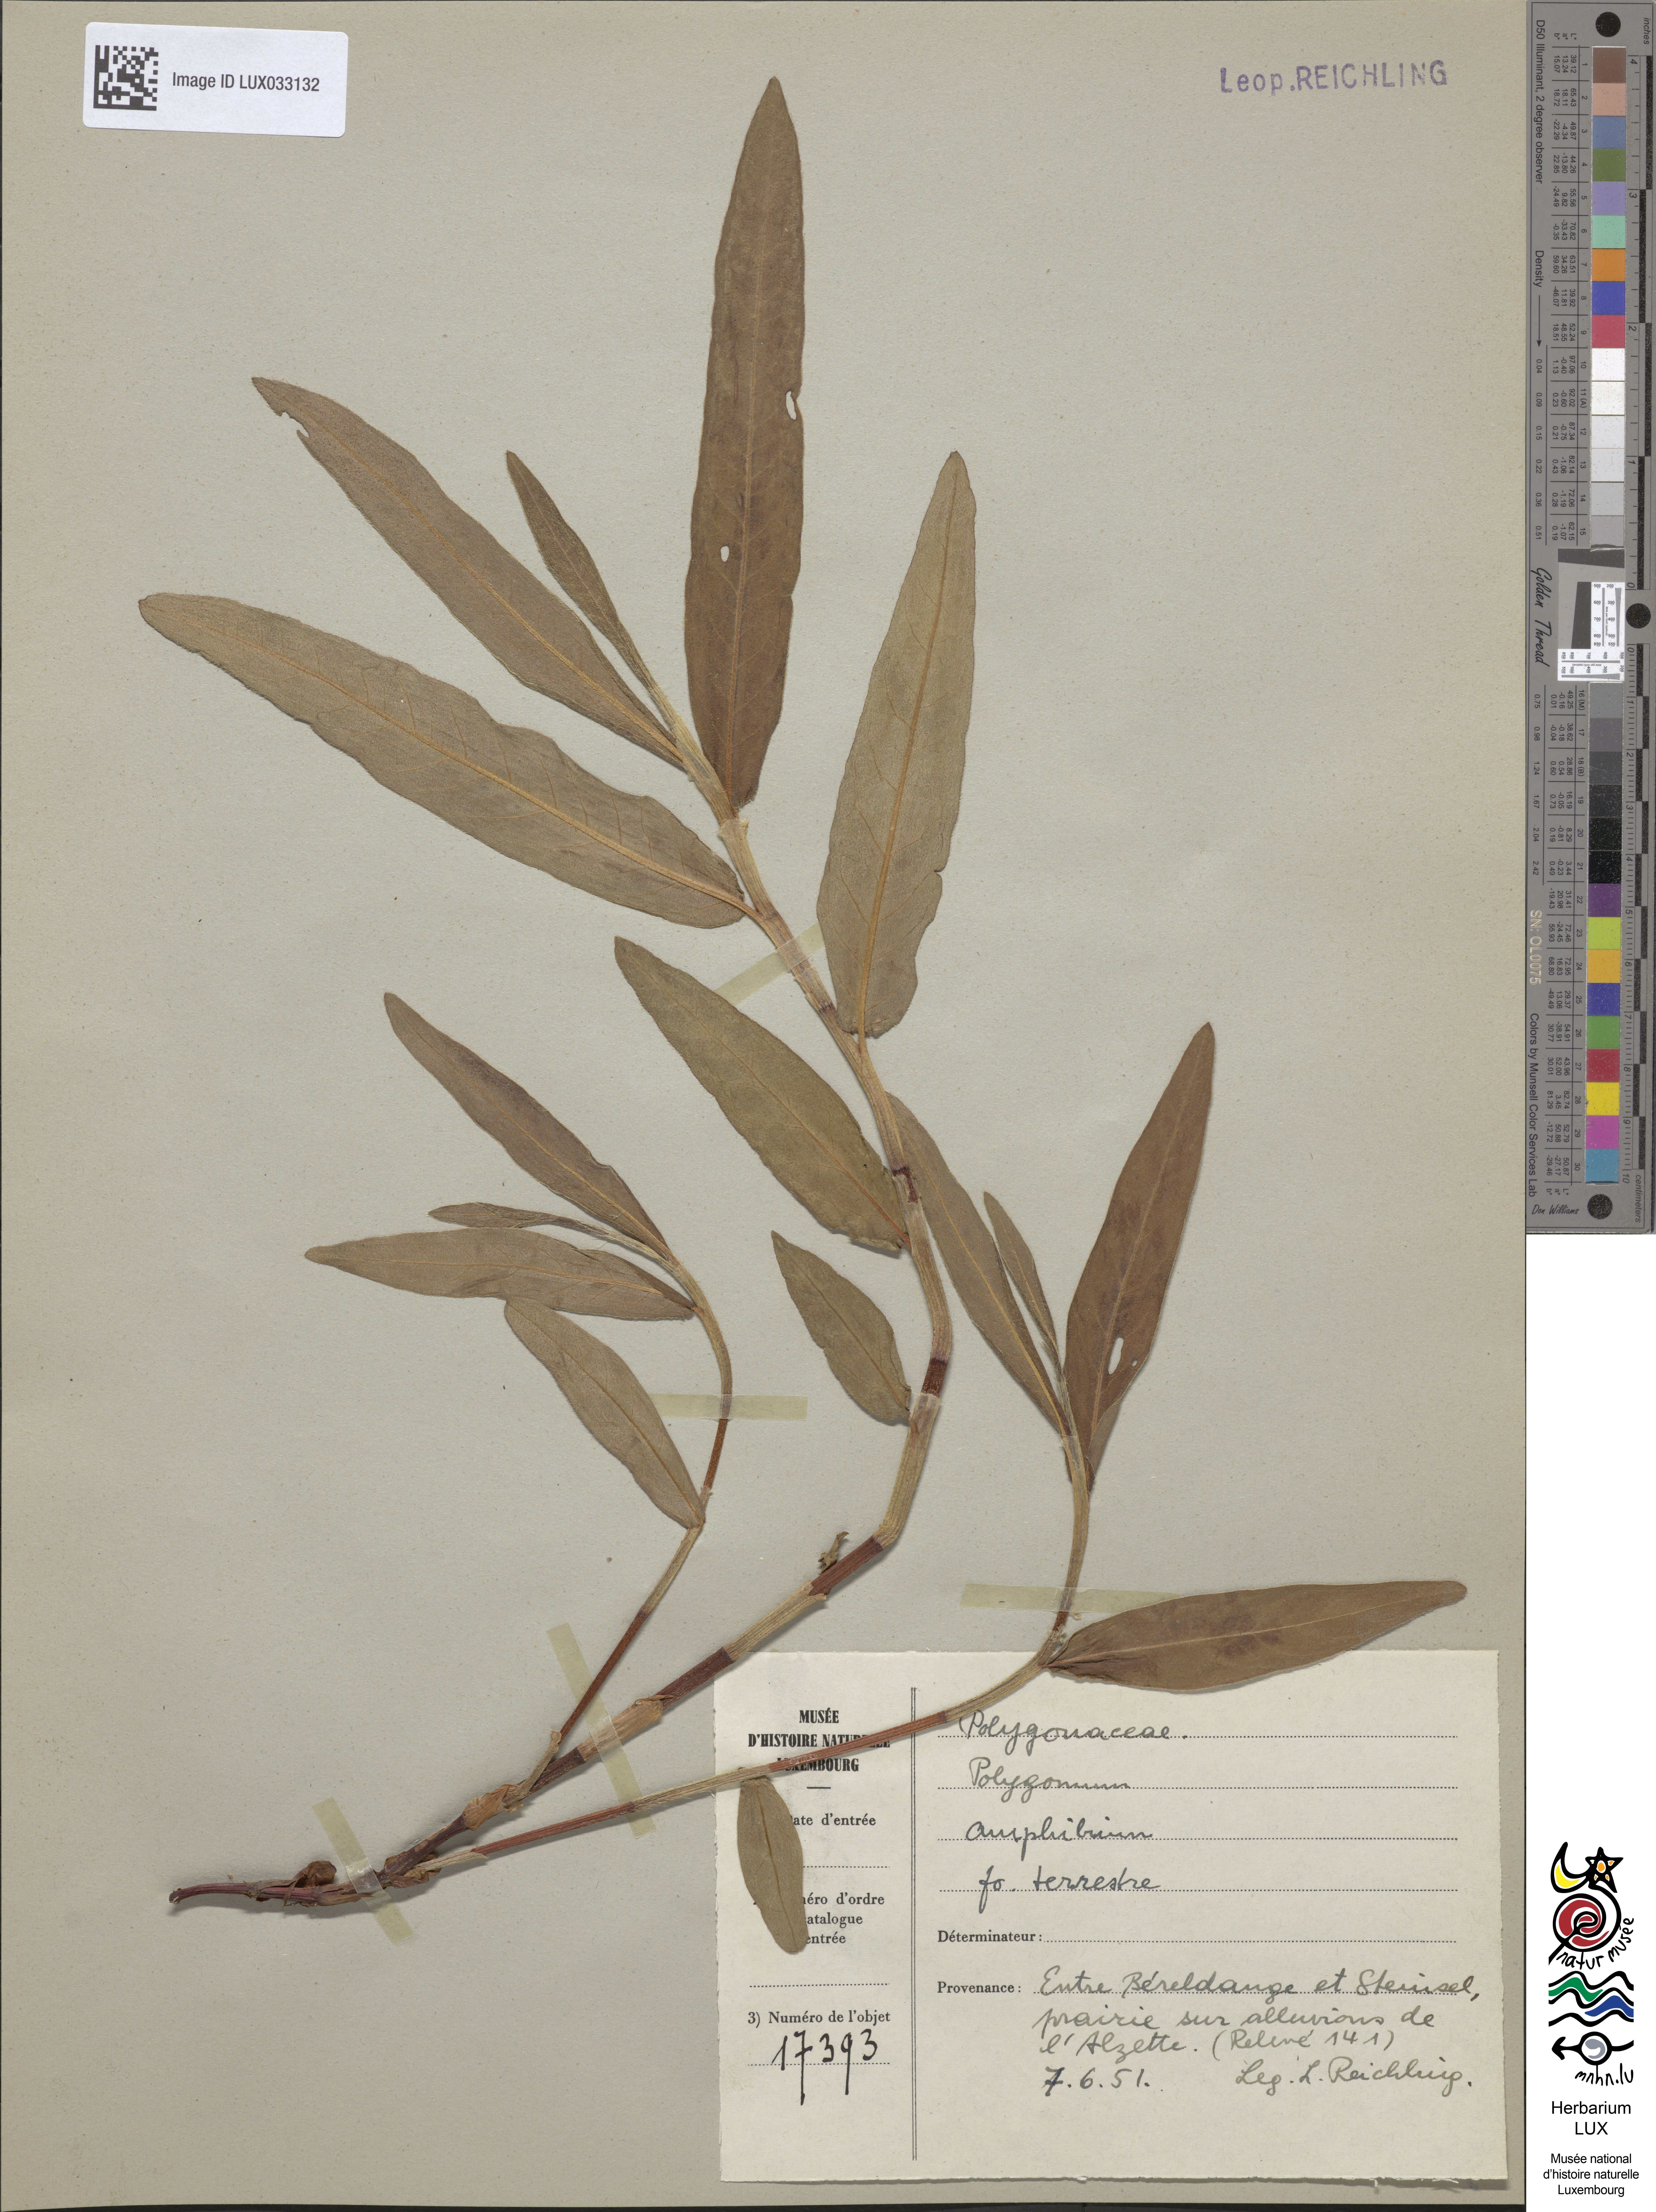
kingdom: Plantae
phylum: Tracheophyta
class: Magnoliopsida
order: Caryophyllales
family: Polygonaceae
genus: Persicaria
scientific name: Persicaria amphibia
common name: Amphibious bistort
